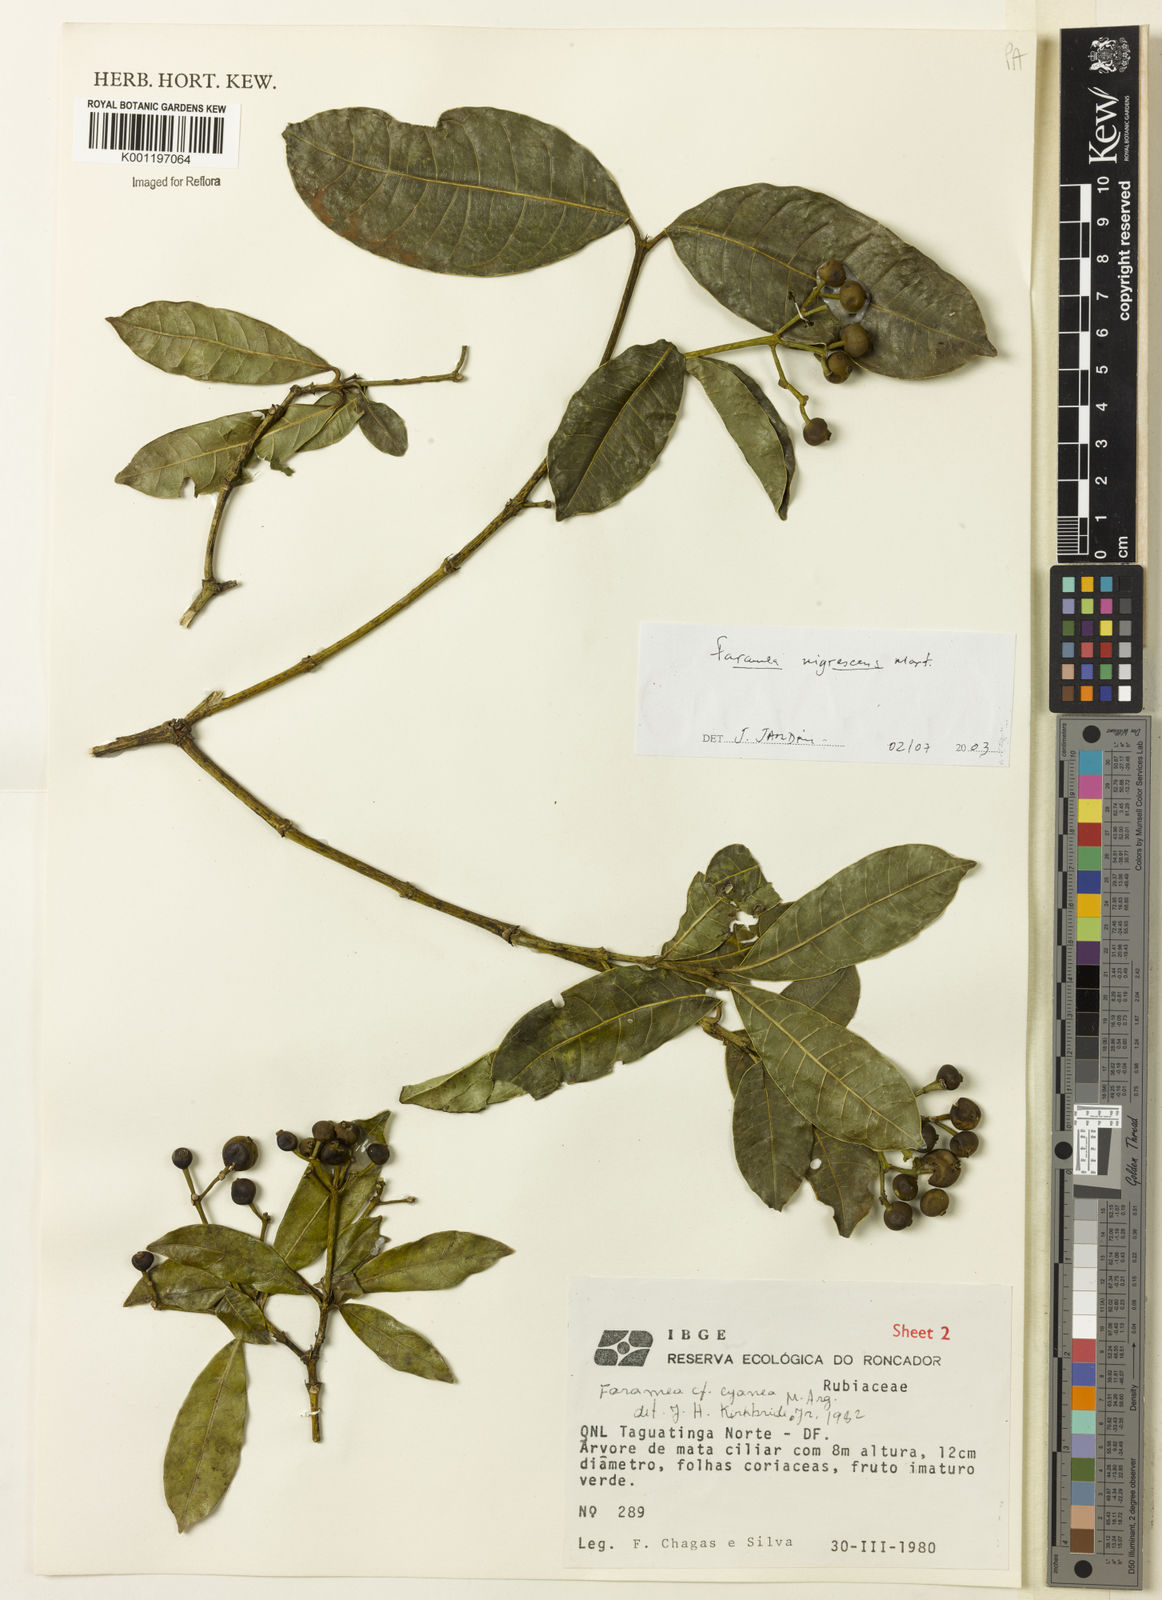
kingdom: Plantae
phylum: Tracheophyta
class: Magnoliopsida
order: Gentianales
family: Rubiaceae
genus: Faramea
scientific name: Faramea nigrescens
